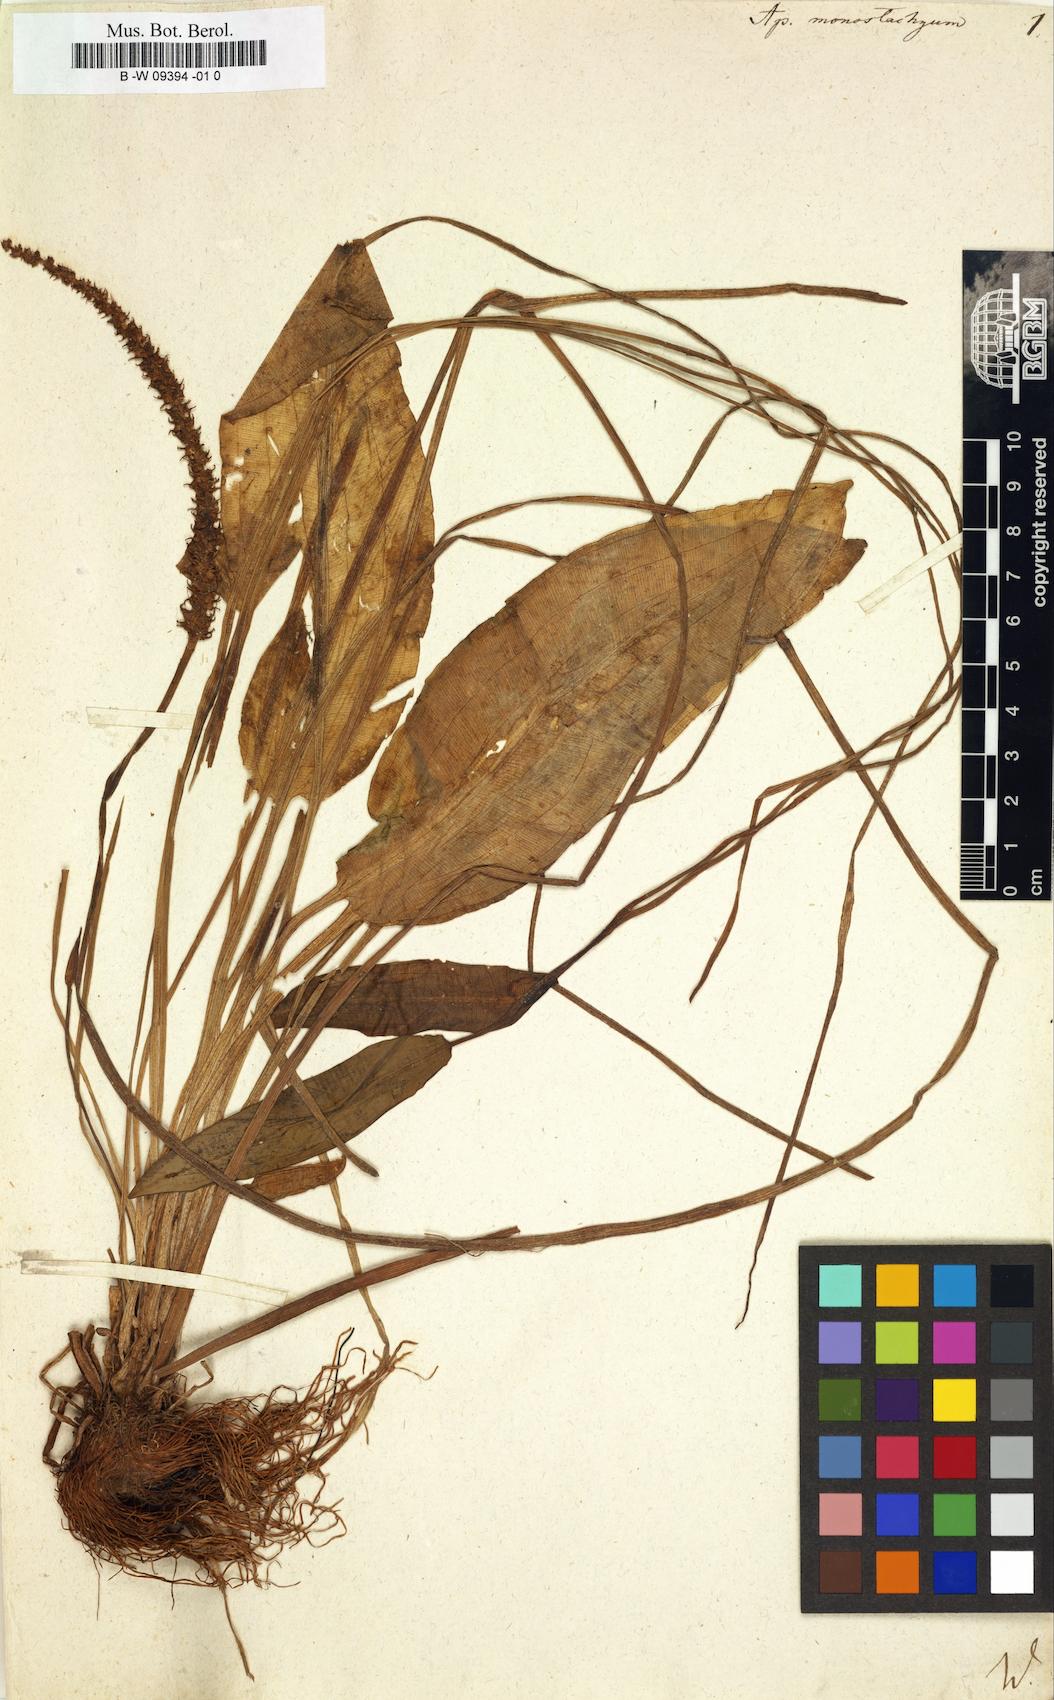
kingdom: Plantae
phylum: Tracheophyta
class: Liliopsida
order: Alismatales
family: Aponogetonaceae
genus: Aponogeton
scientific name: Aponogeton natans
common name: Drifting sword plant
